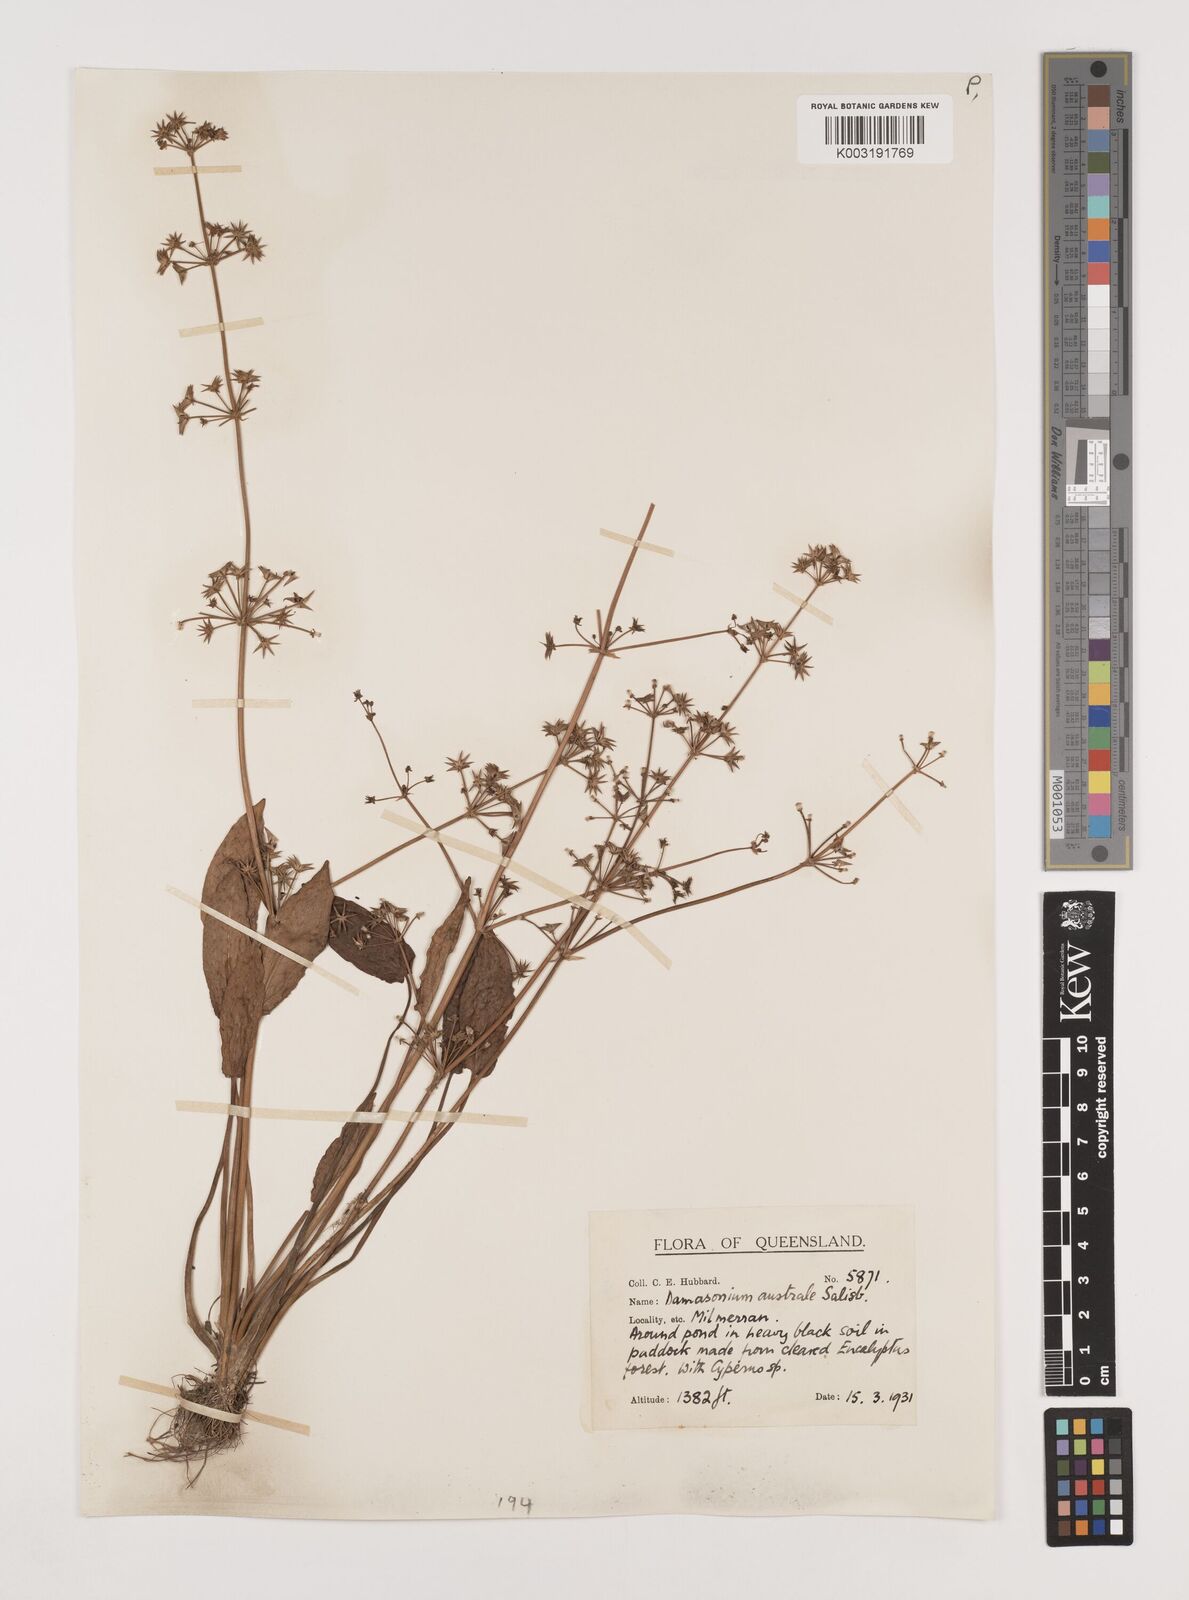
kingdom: Plantae
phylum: Tracheophyta
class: Liliopsida
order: Alismatales
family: Alismataceae
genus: Damasonium
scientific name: Damasonium minus
